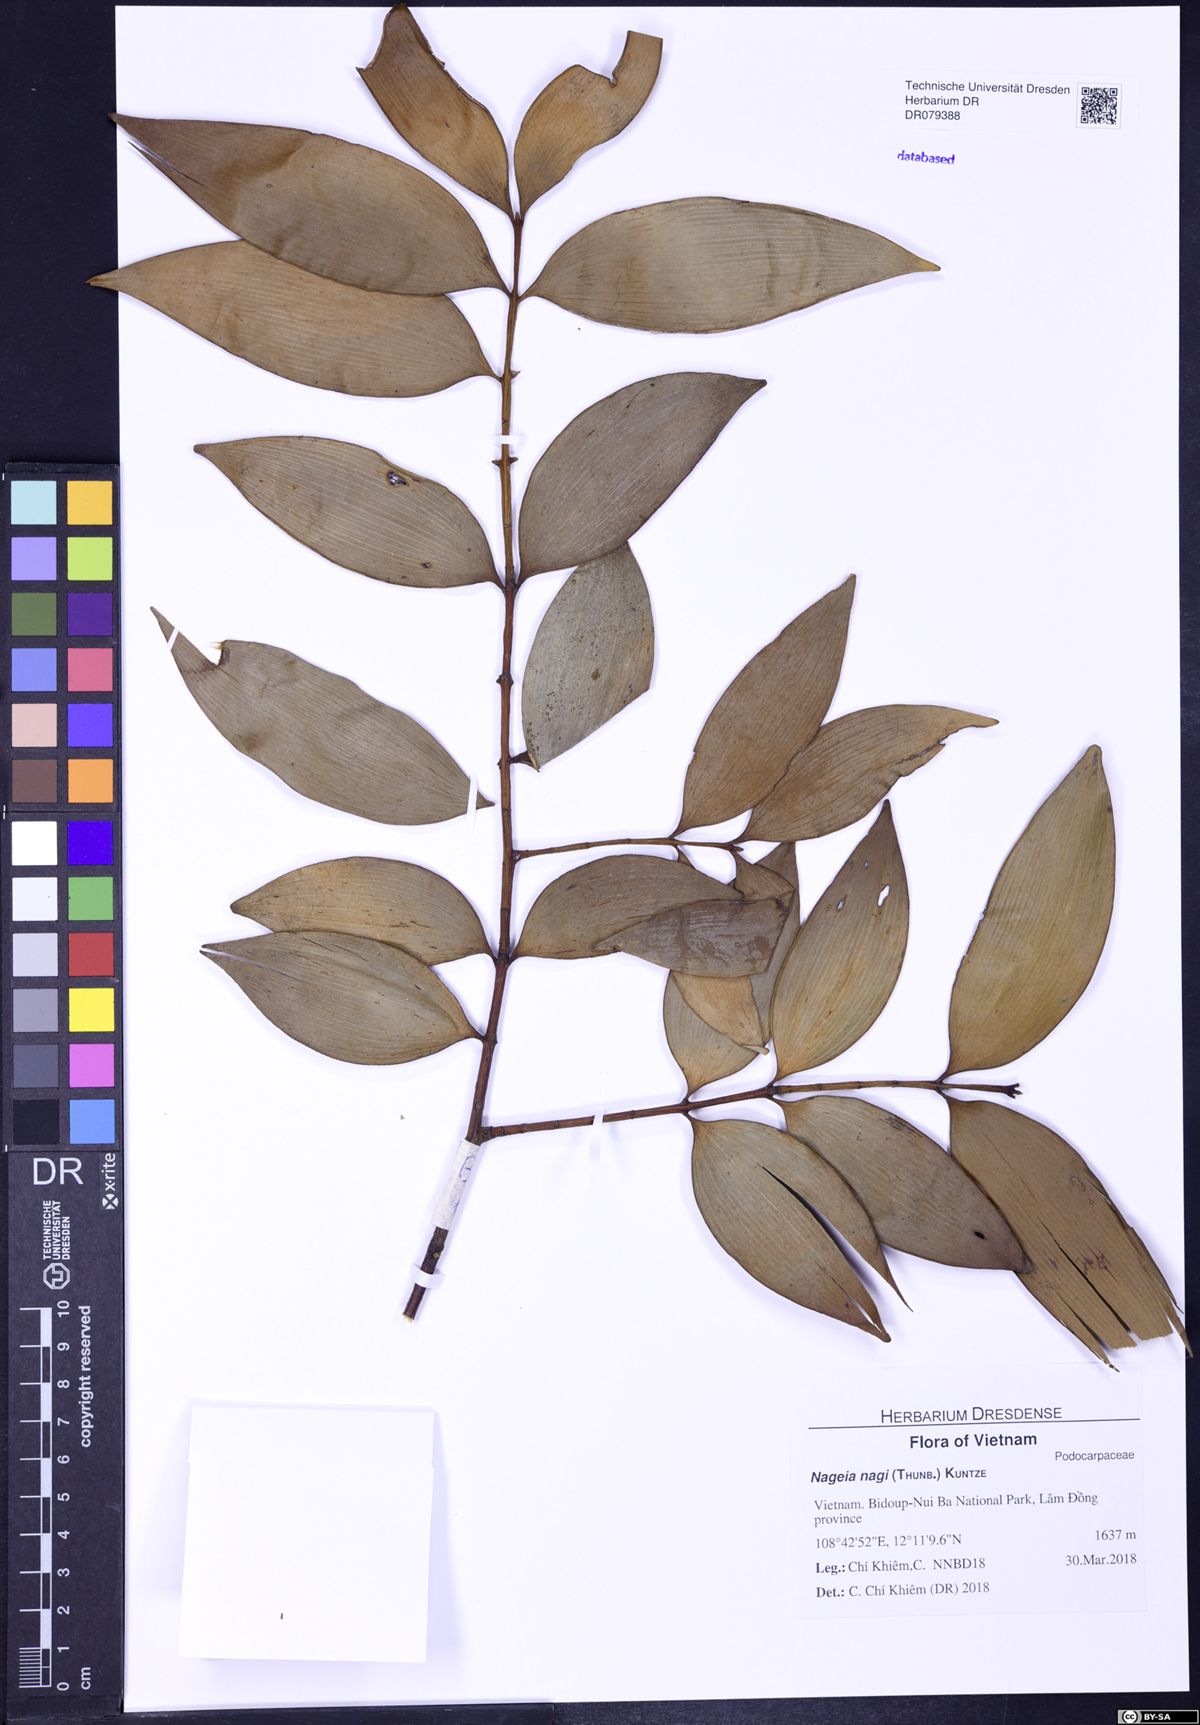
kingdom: Plantae
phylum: Tracheophyta
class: Pinopsida
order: Pinales
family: Podocarpaceae
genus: Nageia
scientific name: Nageia nagi
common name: Kaphal
